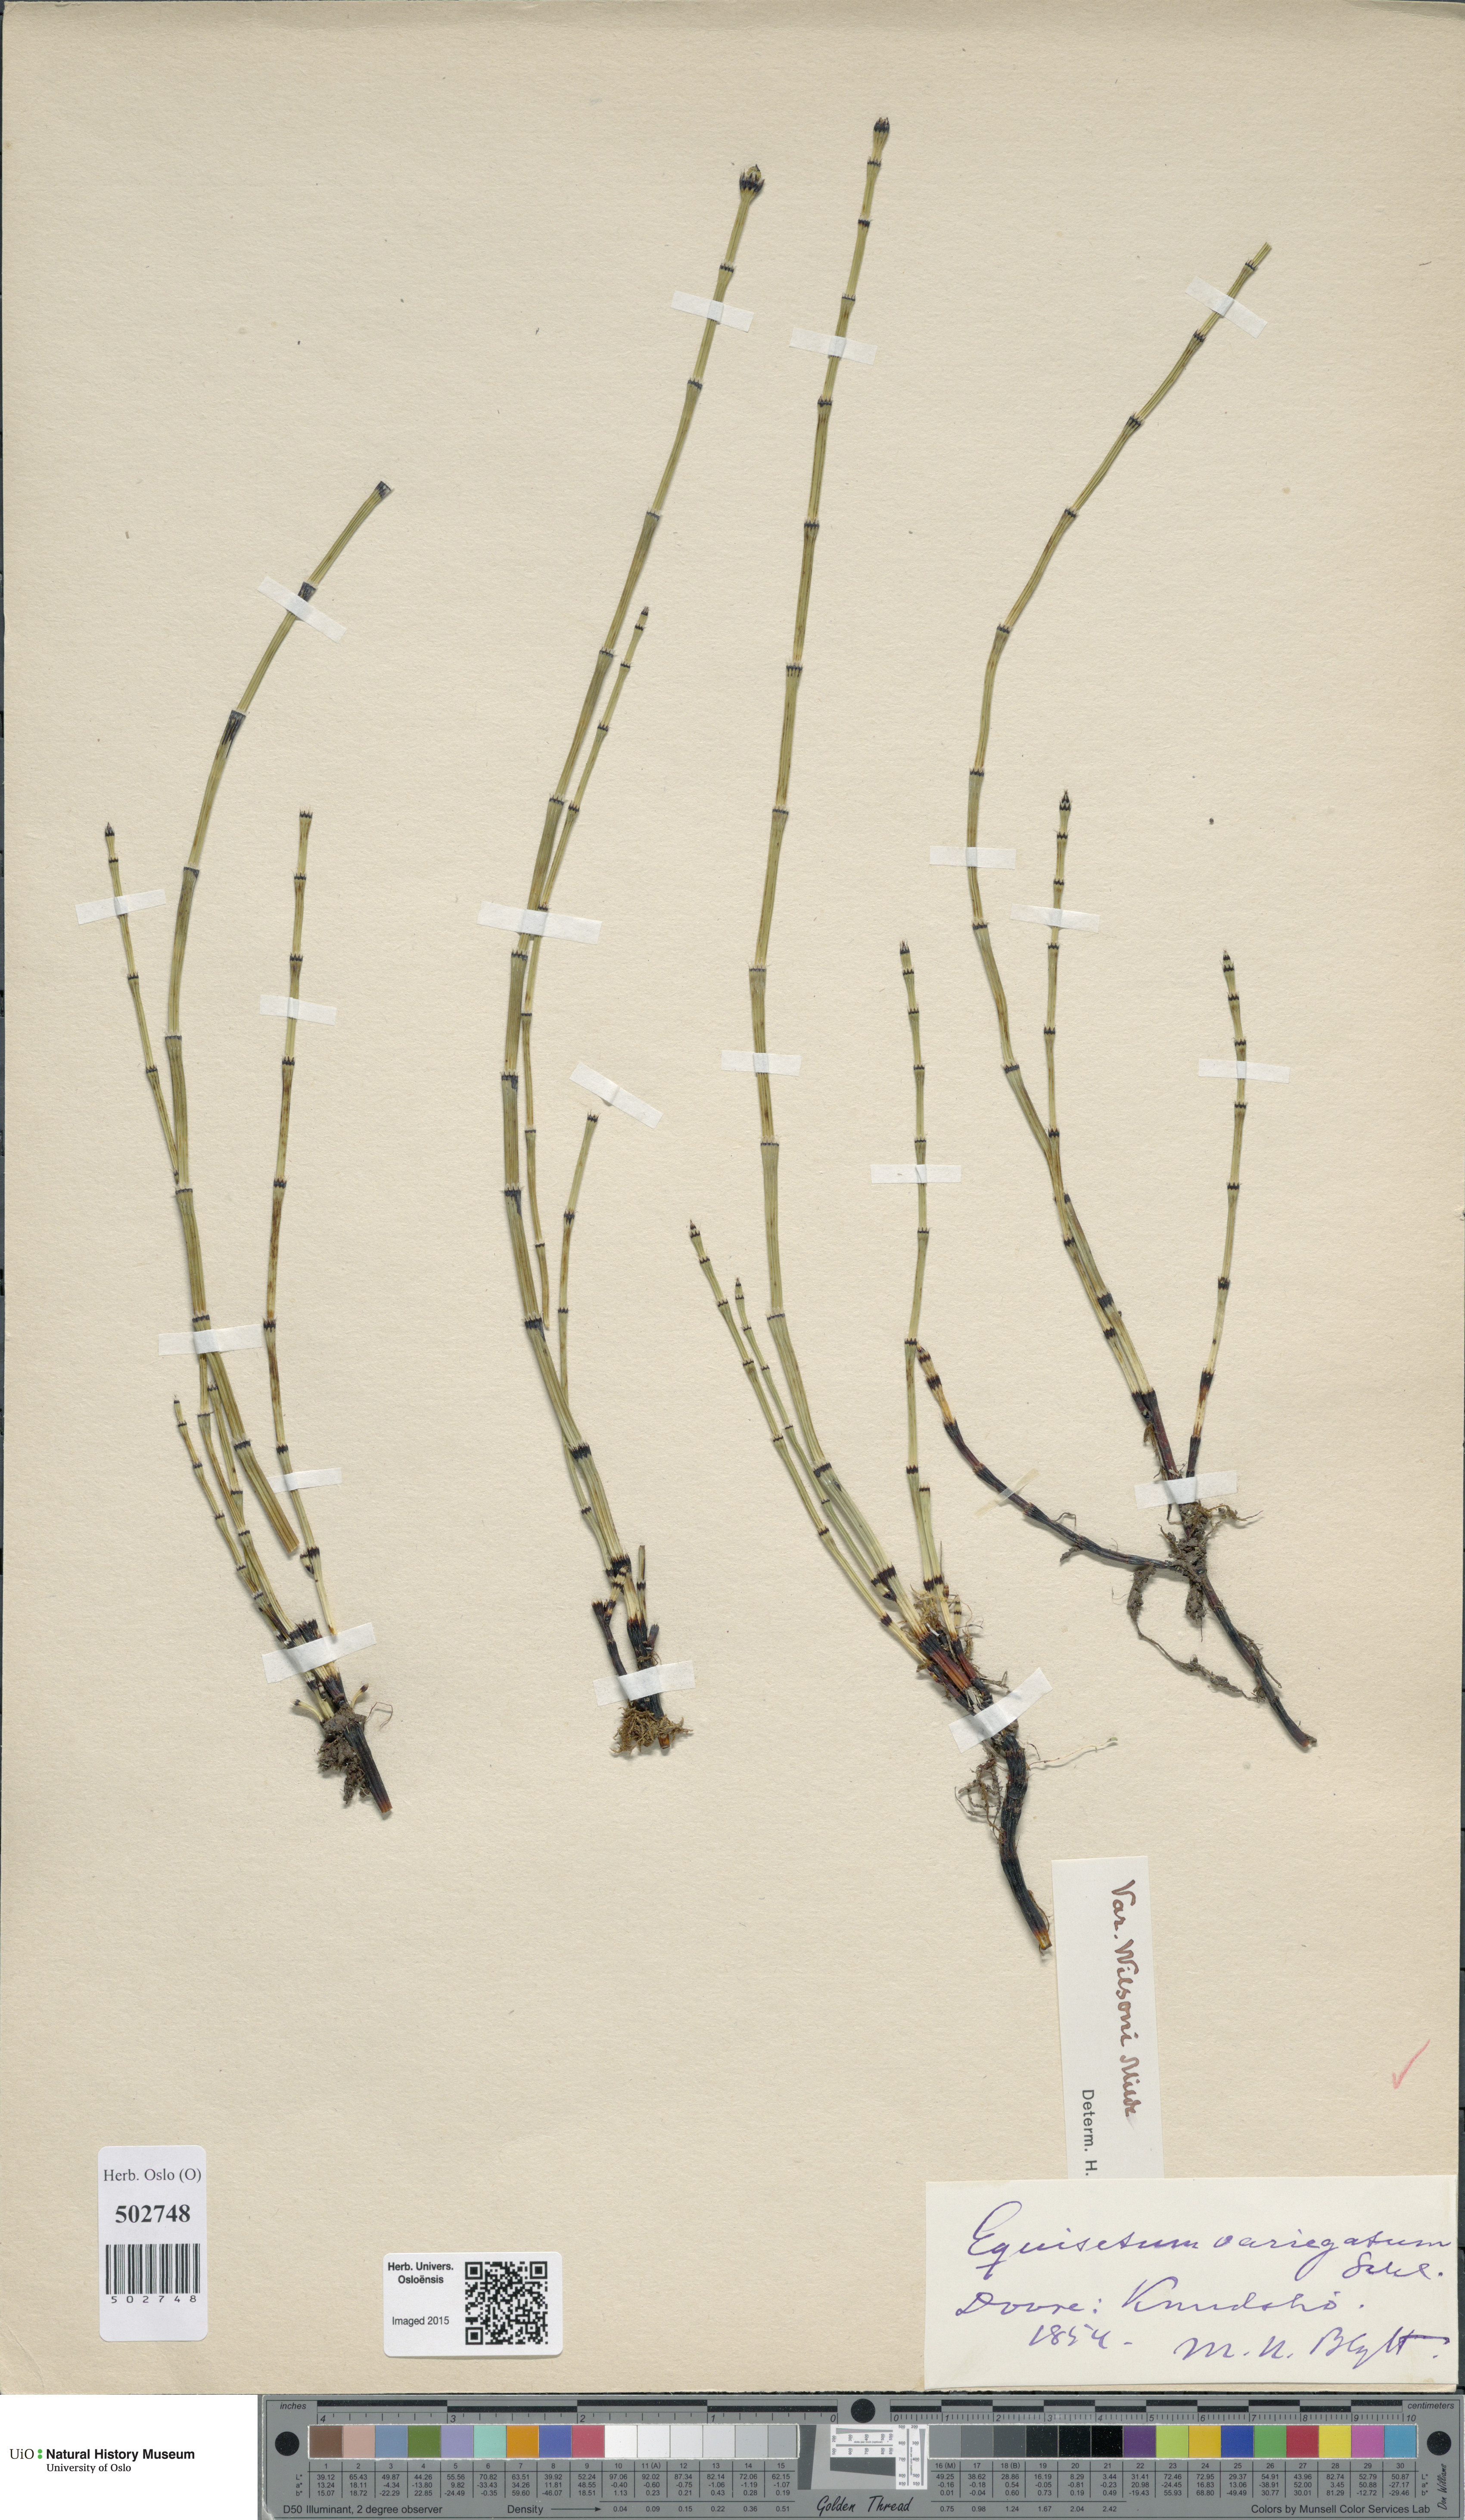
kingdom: Plantae
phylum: Tracheophyta
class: Polypodiopsida
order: Equisetales
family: Equisetaceae
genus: Equisetum
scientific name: Equisetum variegatum
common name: Variegated horsetail
